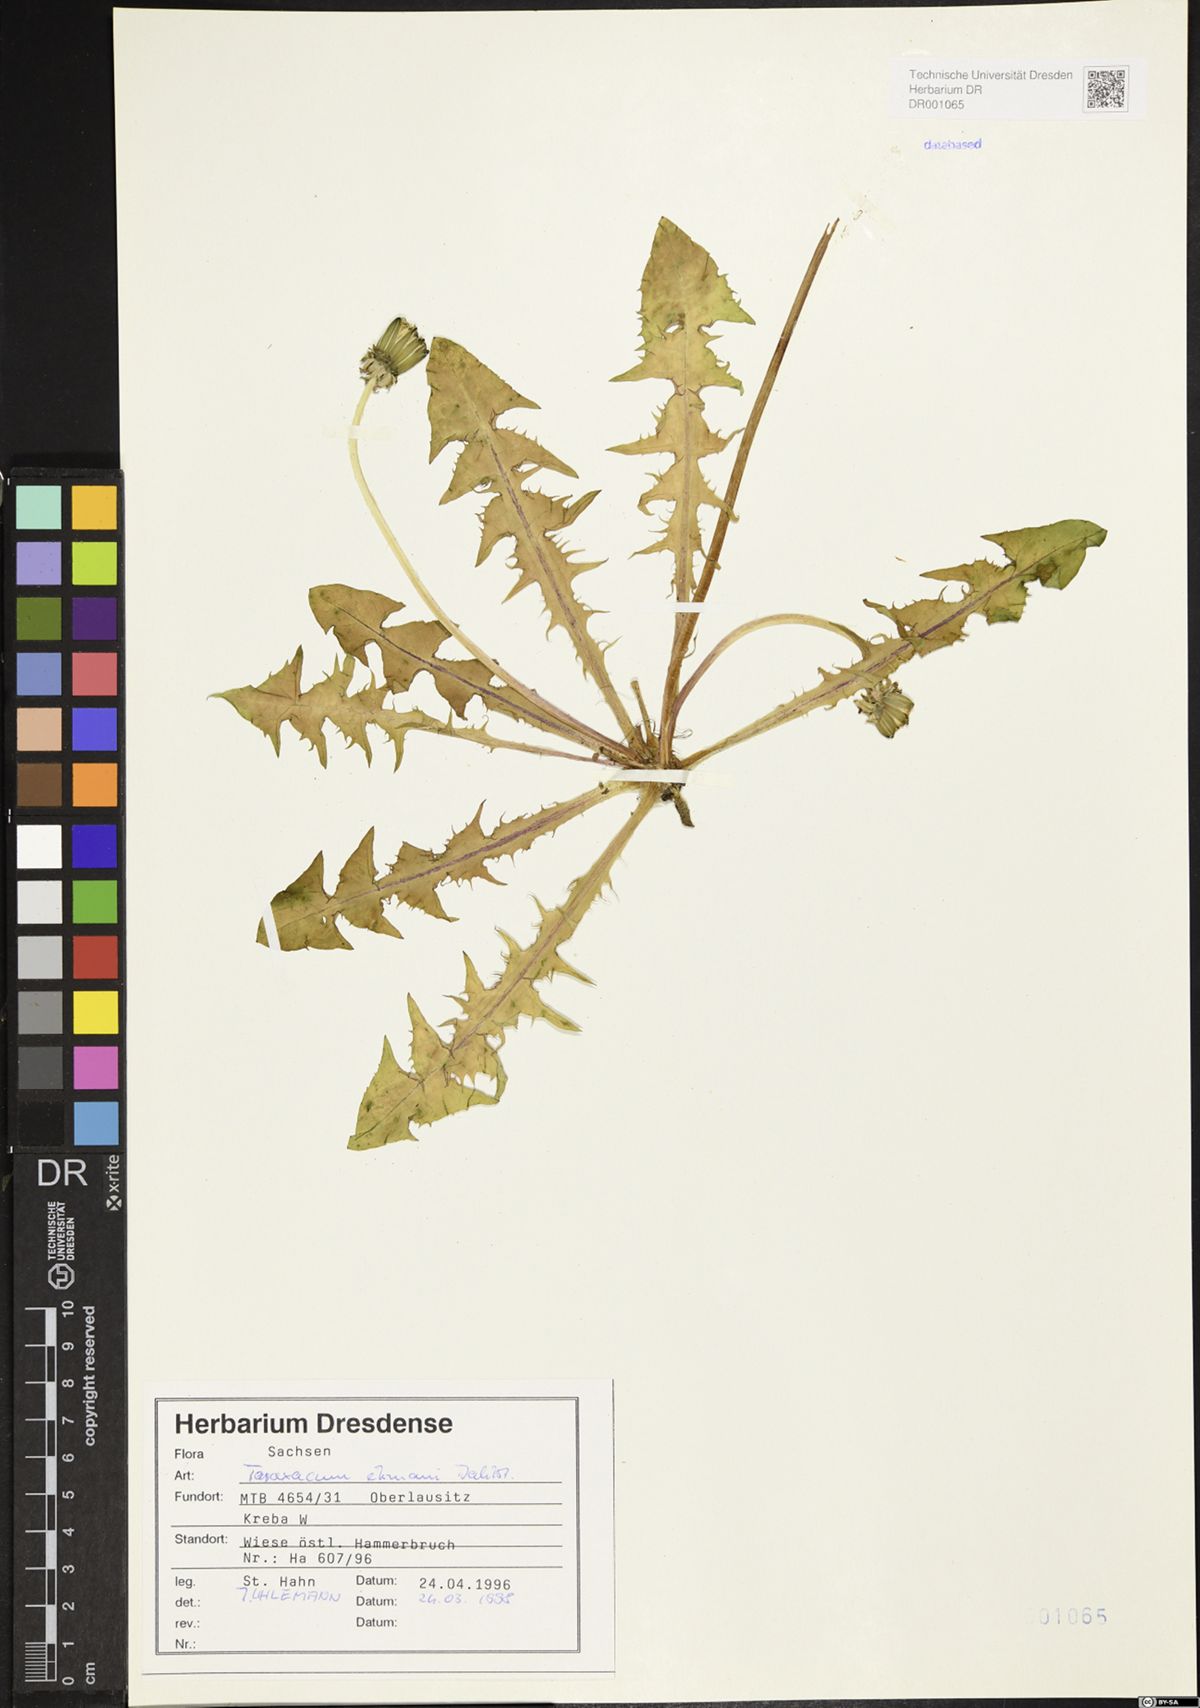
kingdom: Plantae
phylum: Tracheophyta
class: Magnoliopsida
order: Asterales
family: Asteraceae
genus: Taraxacum
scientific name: Taraxacum ekmanii
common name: Ekman's dandelion
